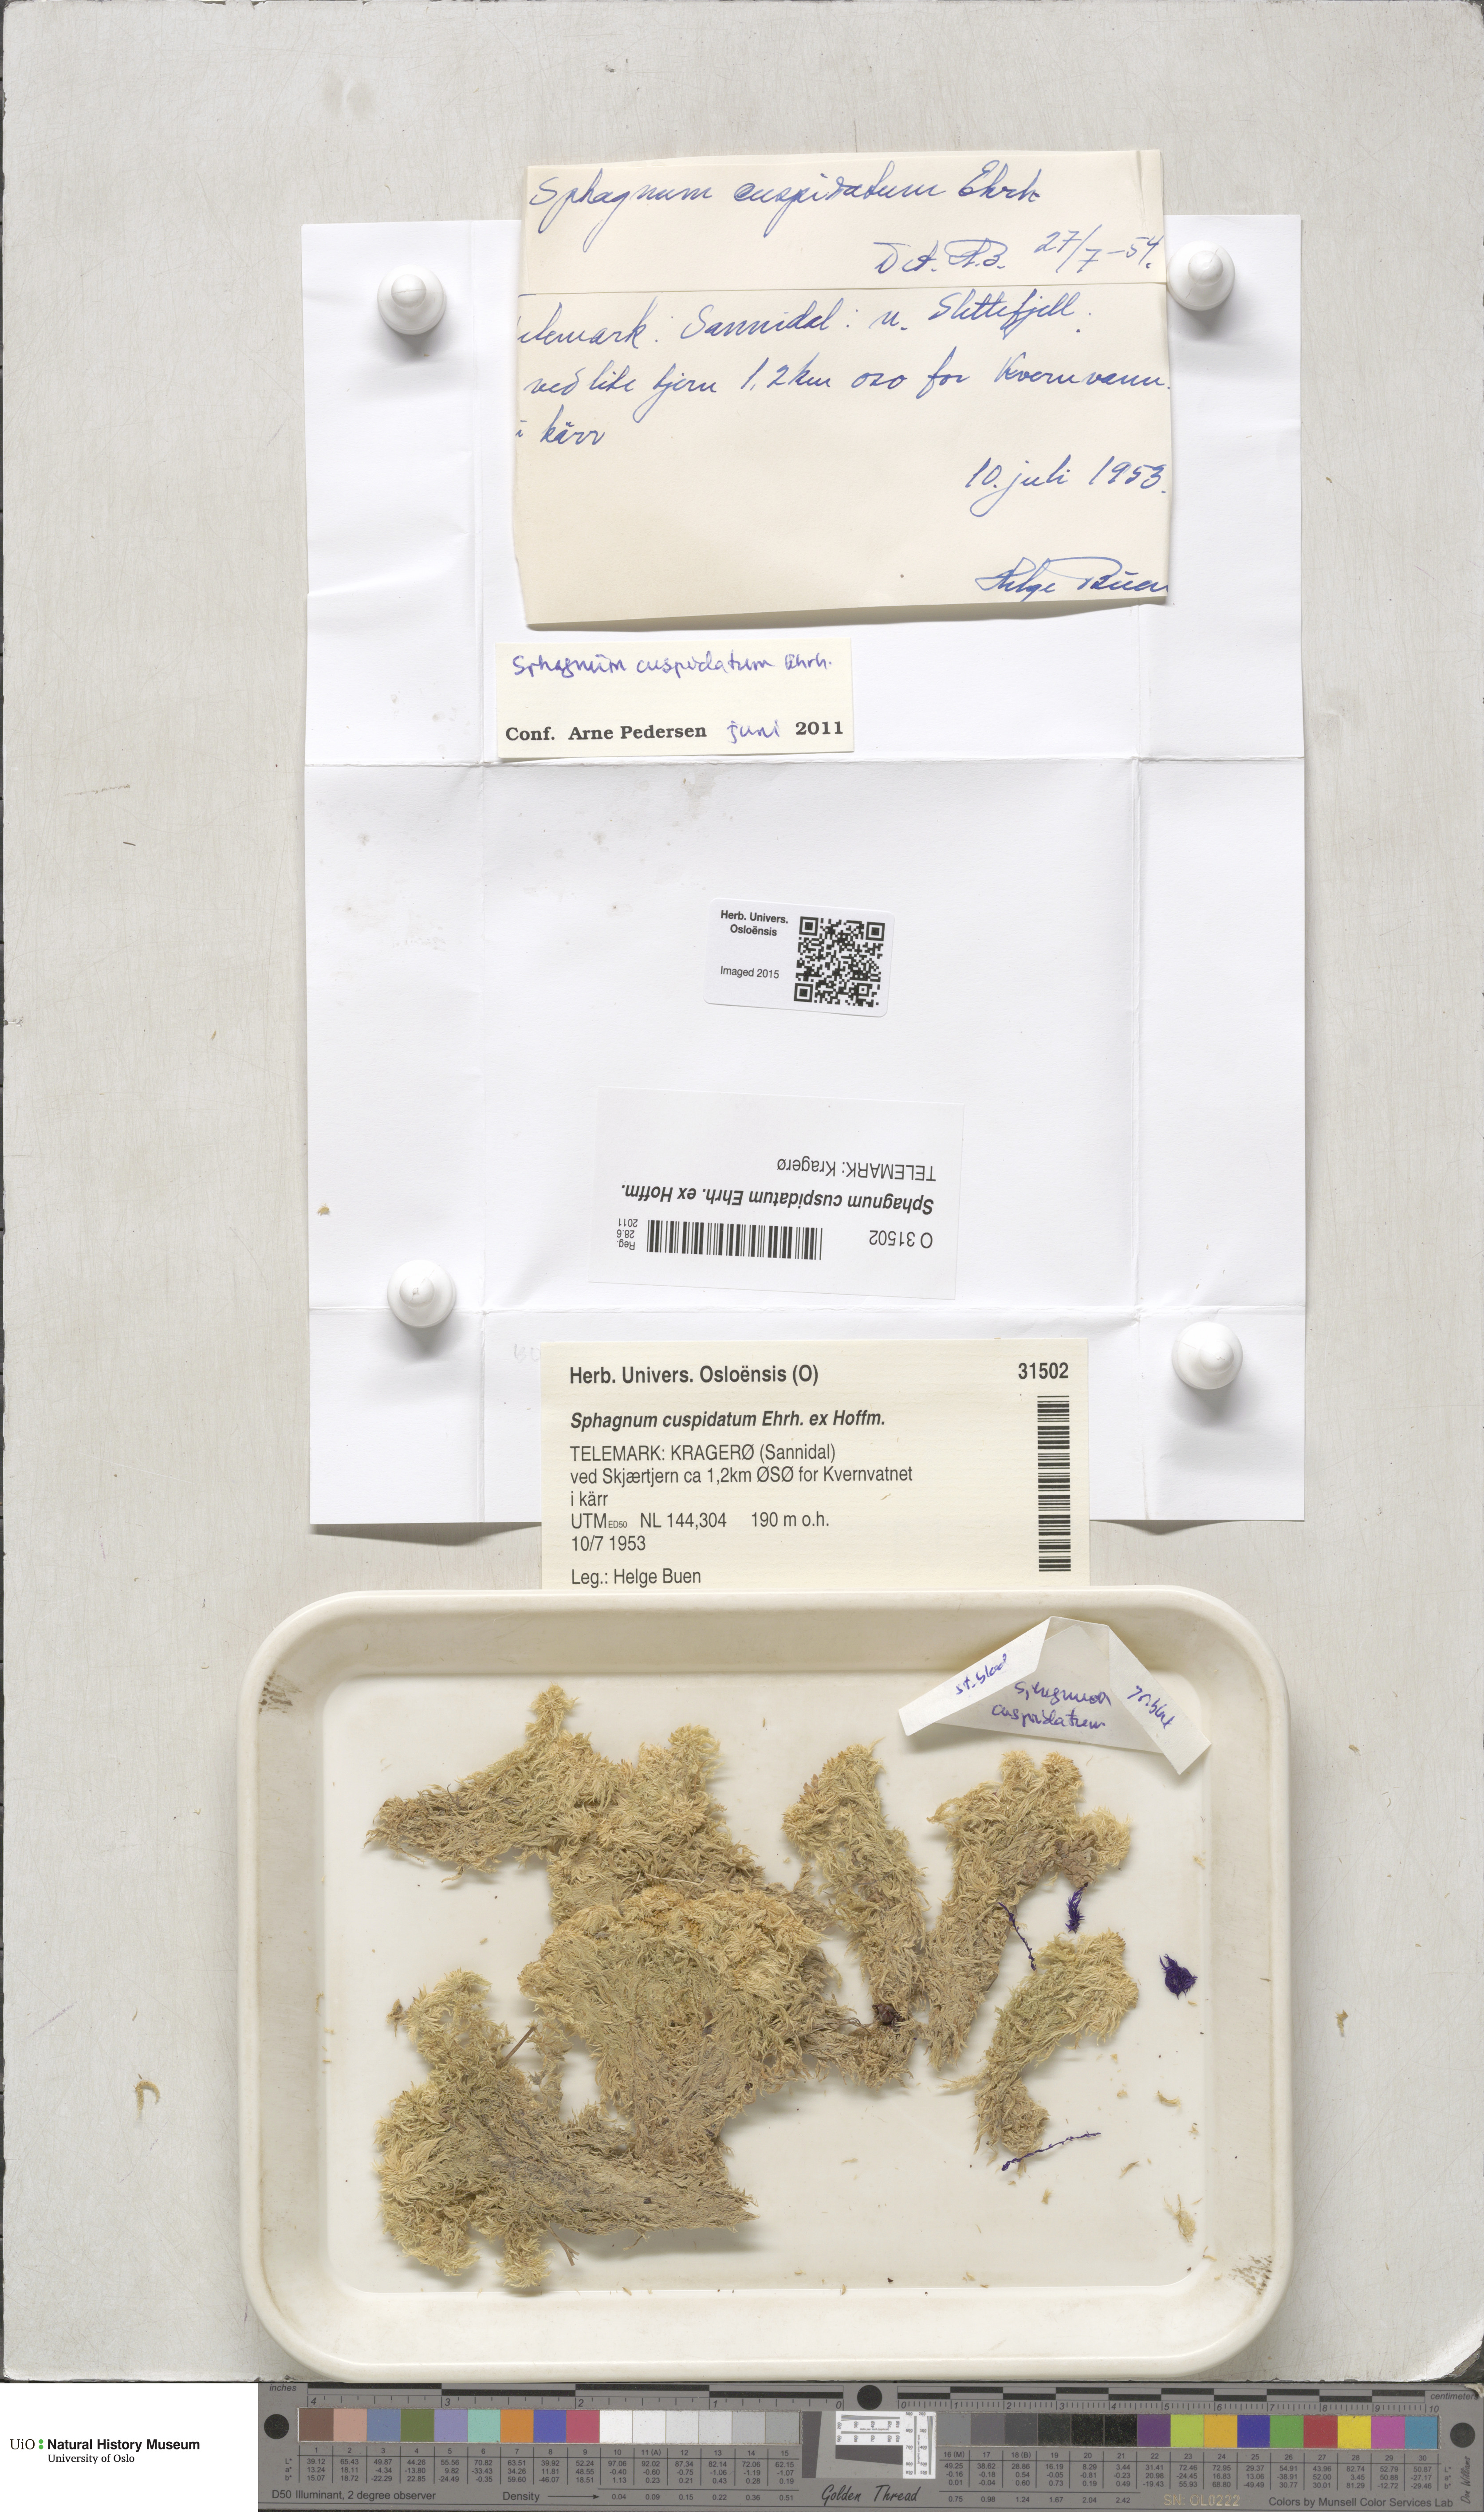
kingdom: Plantae
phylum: Bryophyta
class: Sphagnopsida
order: Sphagnales
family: Sphagnaceae
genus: Sphagnum
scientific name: Sphagnum cuspidatum
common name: Feathery peat moss
